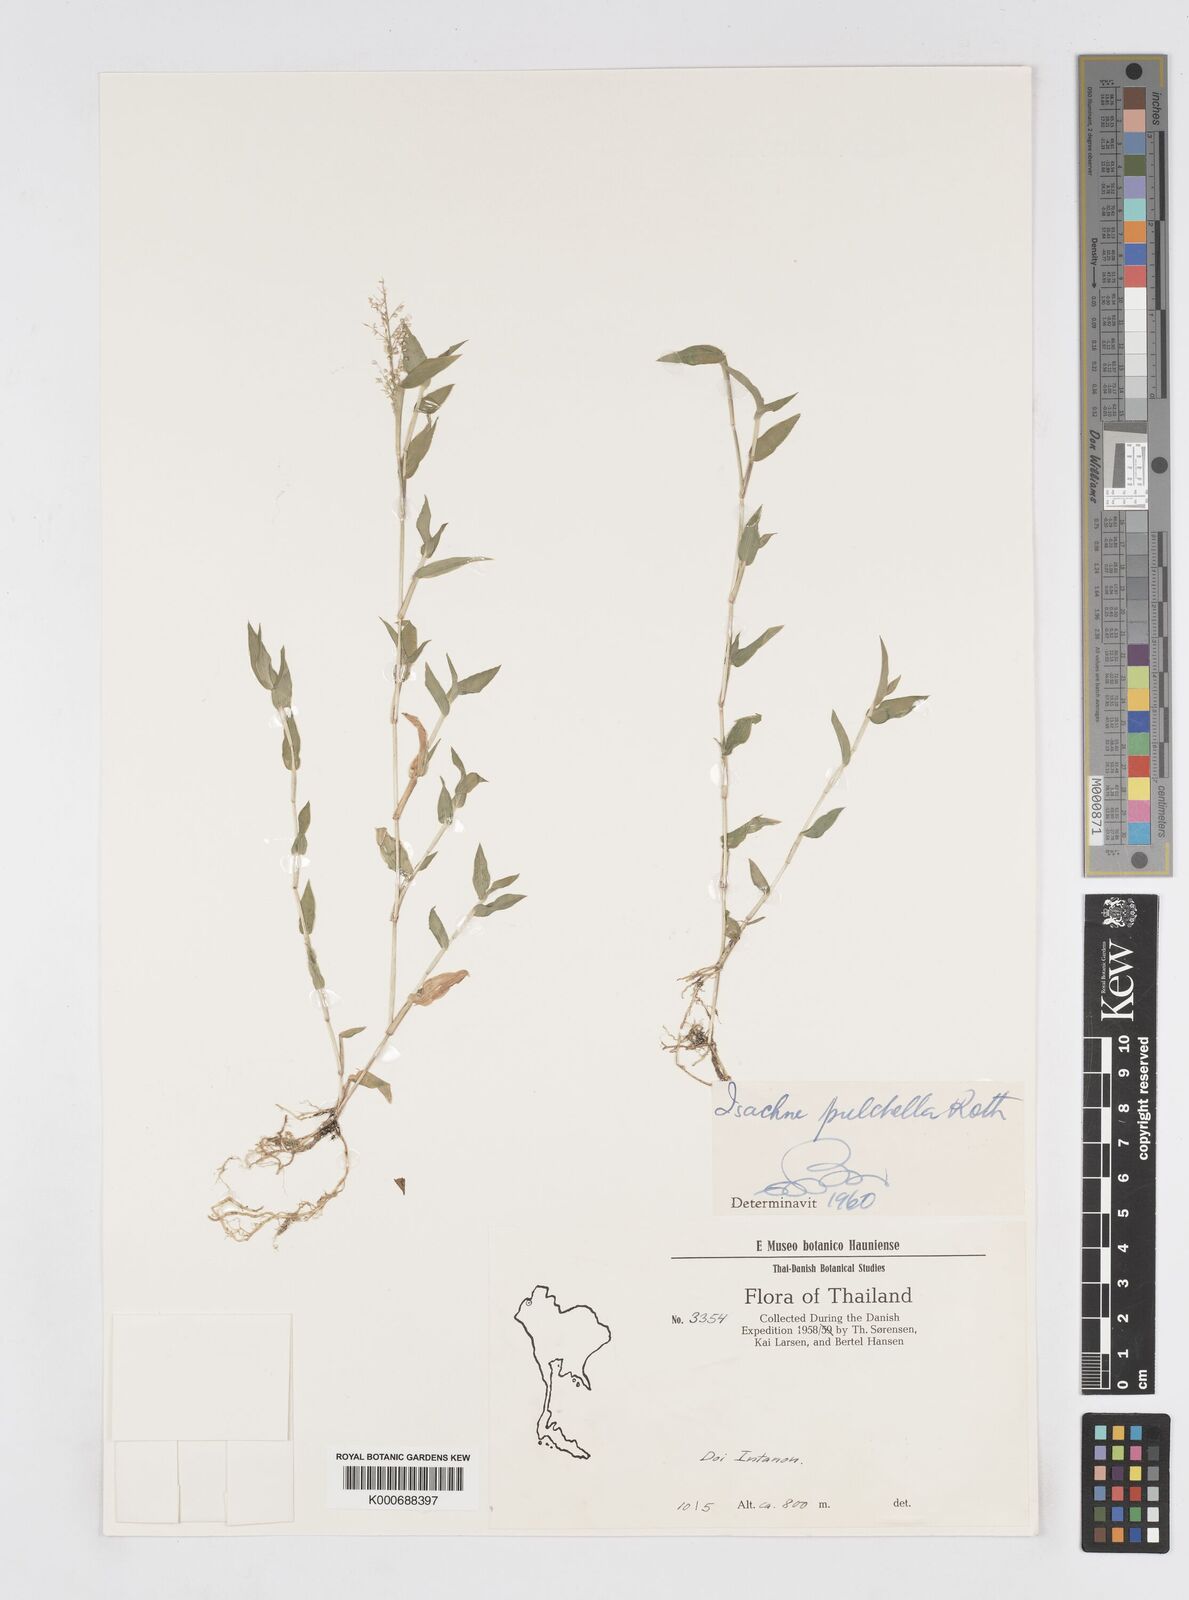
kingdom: Plantae
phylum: Tracheophyta
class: Liliopsida
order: Poales
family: Poaceae
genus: Isachne
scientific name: Isachne pulchella
